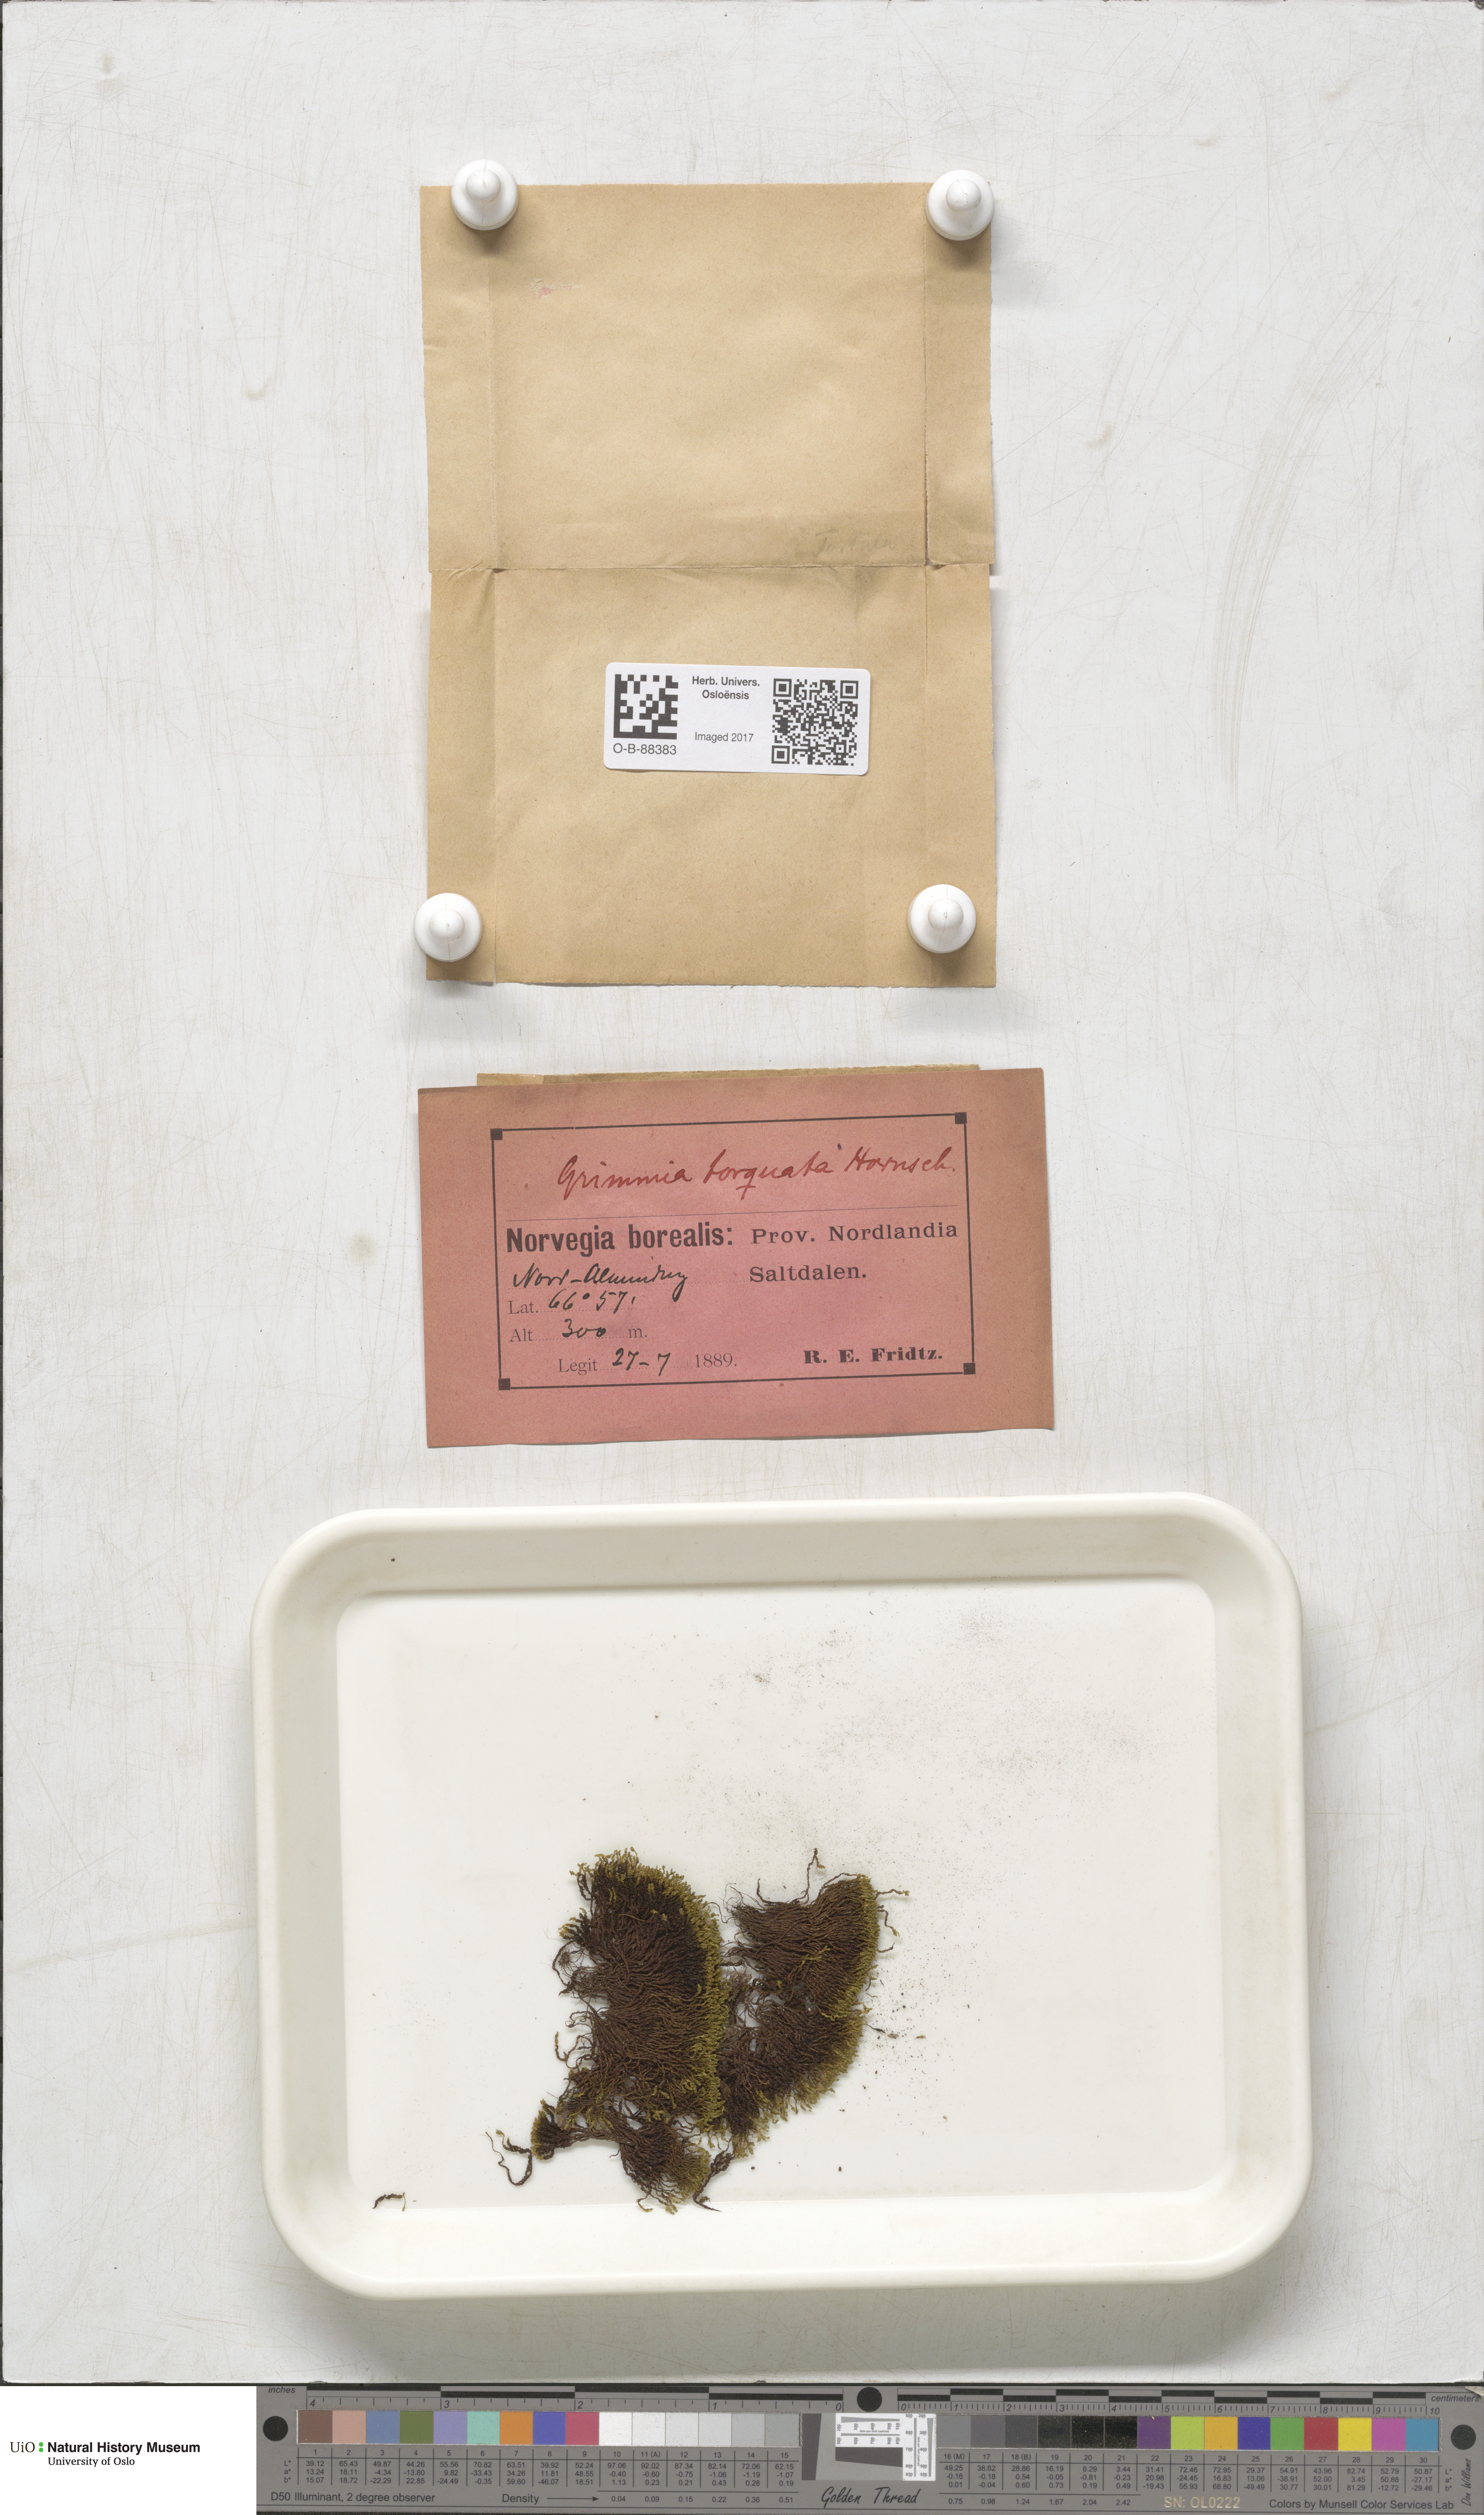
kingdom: Plantae
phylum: Bryophyta
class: Bryopsida
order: Grimmiales
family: Grimmiaceae
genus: Grimmia
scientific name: Grimmia torquata
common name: Twisted grimmia
